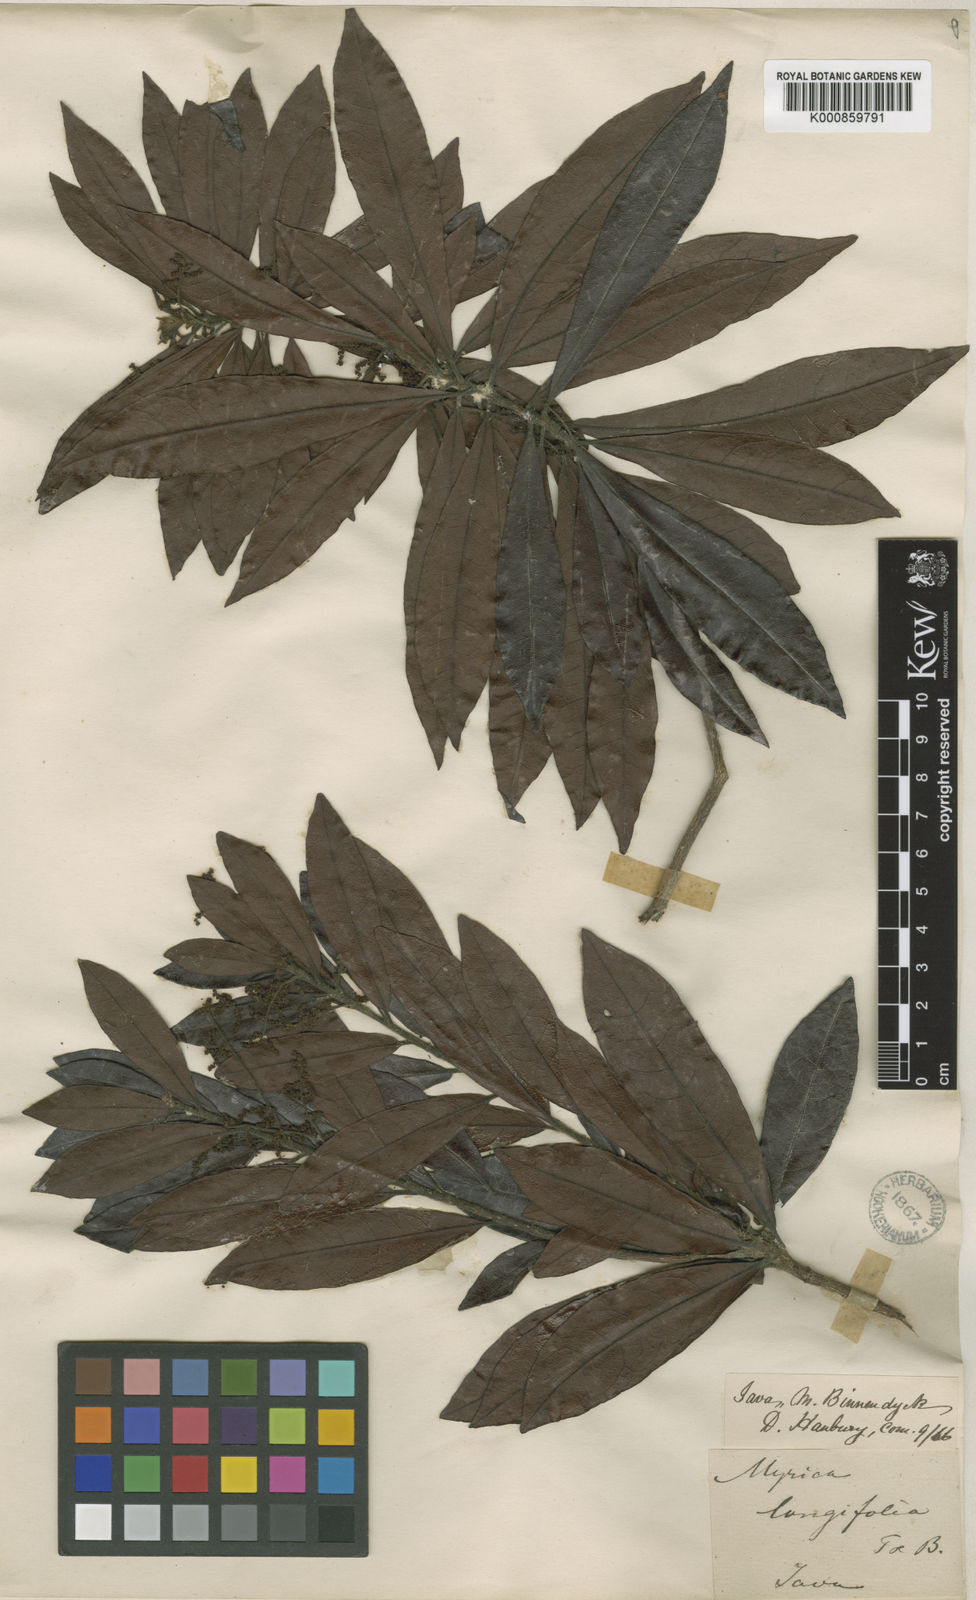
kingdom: Plantae
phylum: Tracheophyta
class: Magnoliopsida
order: Fagales
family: Myricaceae
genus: Morella
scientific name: Morella esculenta
